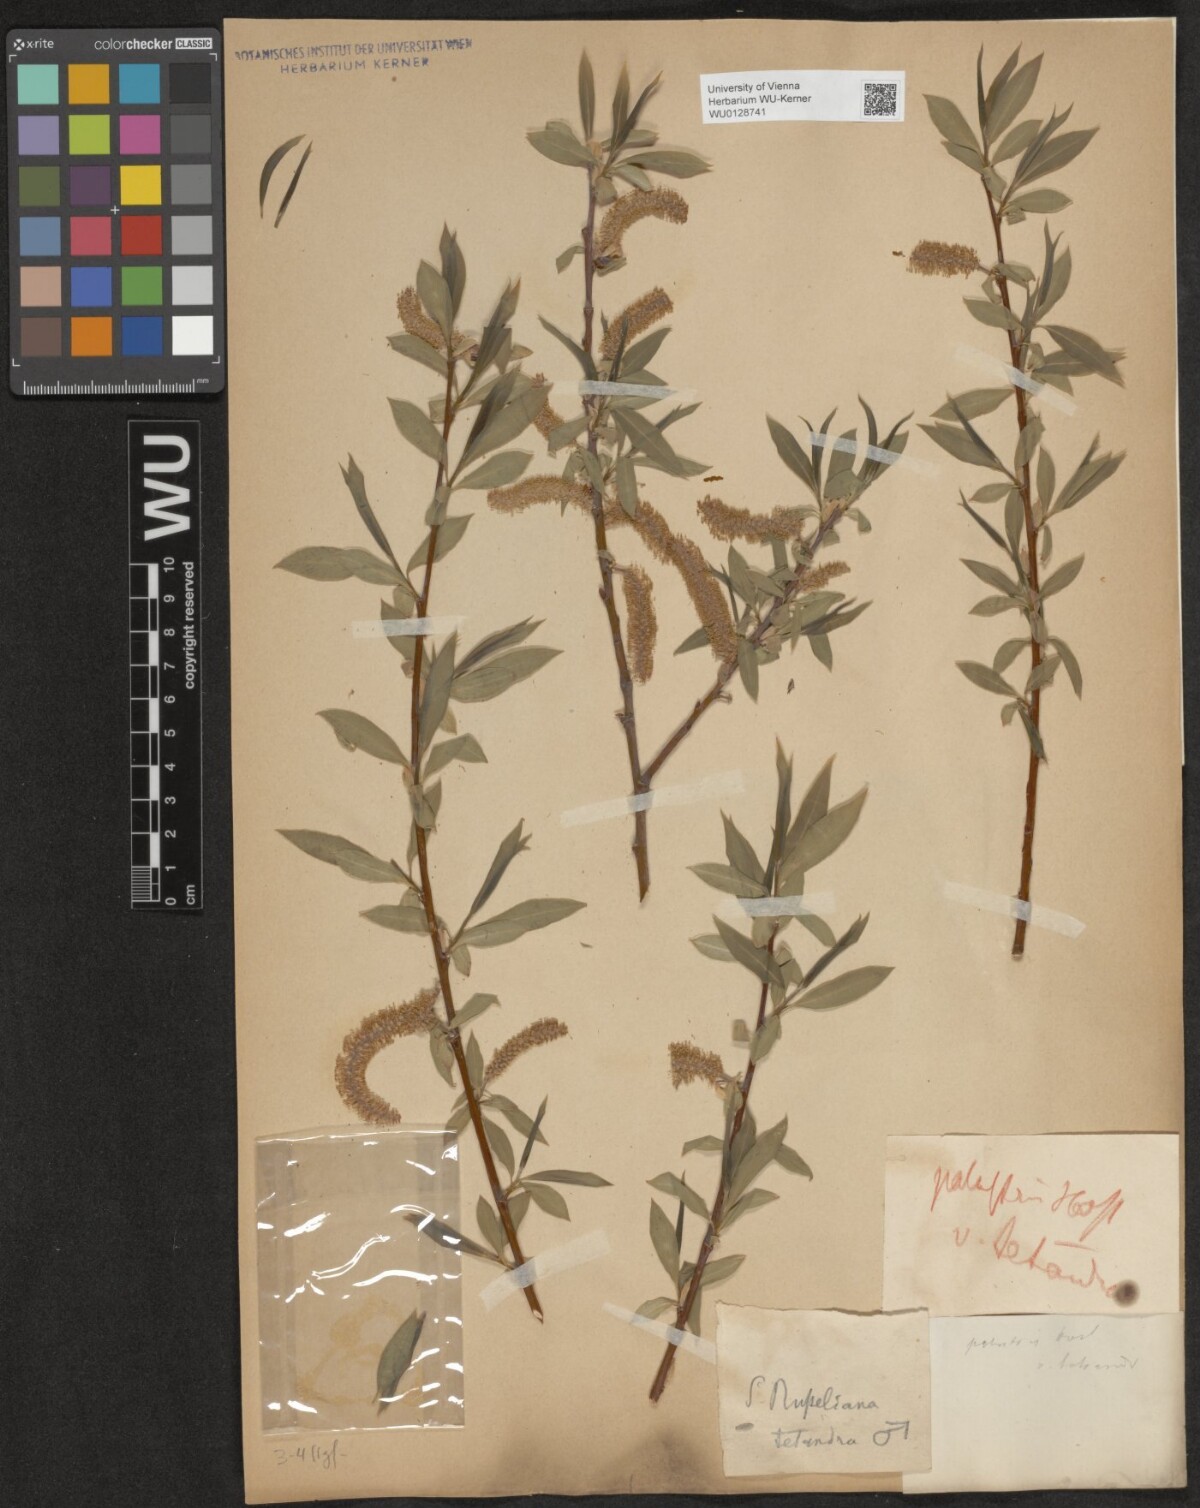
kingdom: Plantae
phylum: Tracheophyta
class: Magnoliopsida
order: Malpighiales
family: Salicaceae
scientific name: Salicaceae
